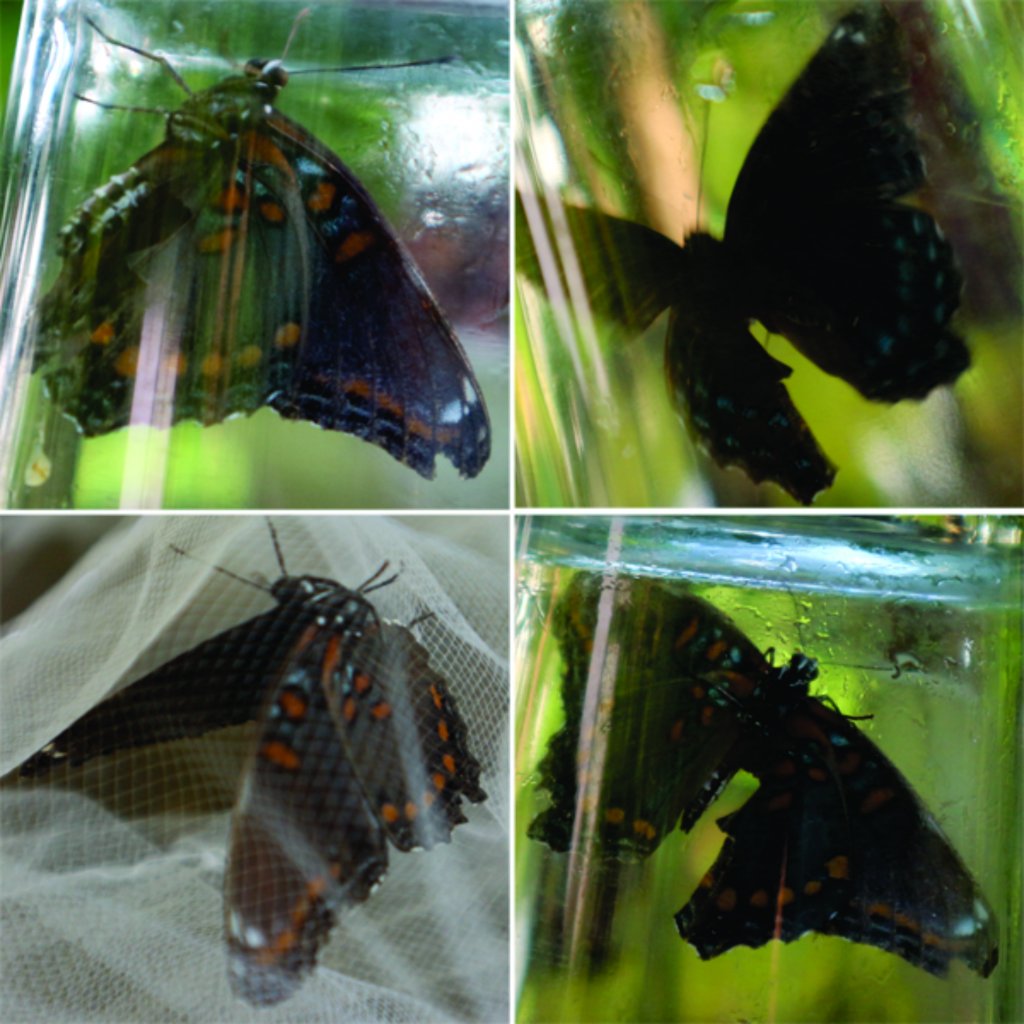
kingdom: Animalia
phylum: Arthropoda
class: Insecta
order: Lepidoptera
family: Nymphalidae
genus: Limenitis
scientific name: Limenitis astyanax
